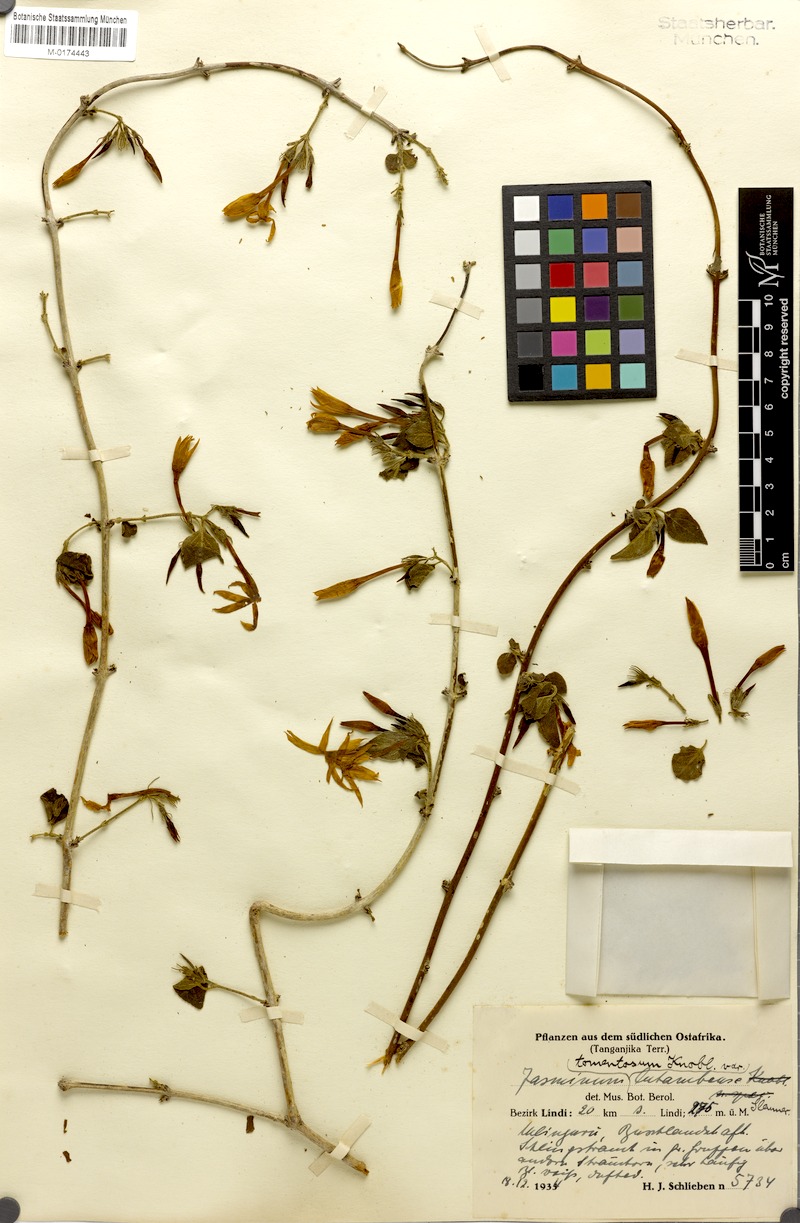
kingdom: Plantae
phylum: Tracheophyta
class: Magnoliopsida
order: Lamiales
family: Oleaceae
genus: Jasminum
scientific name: Jasminum stenolobum
